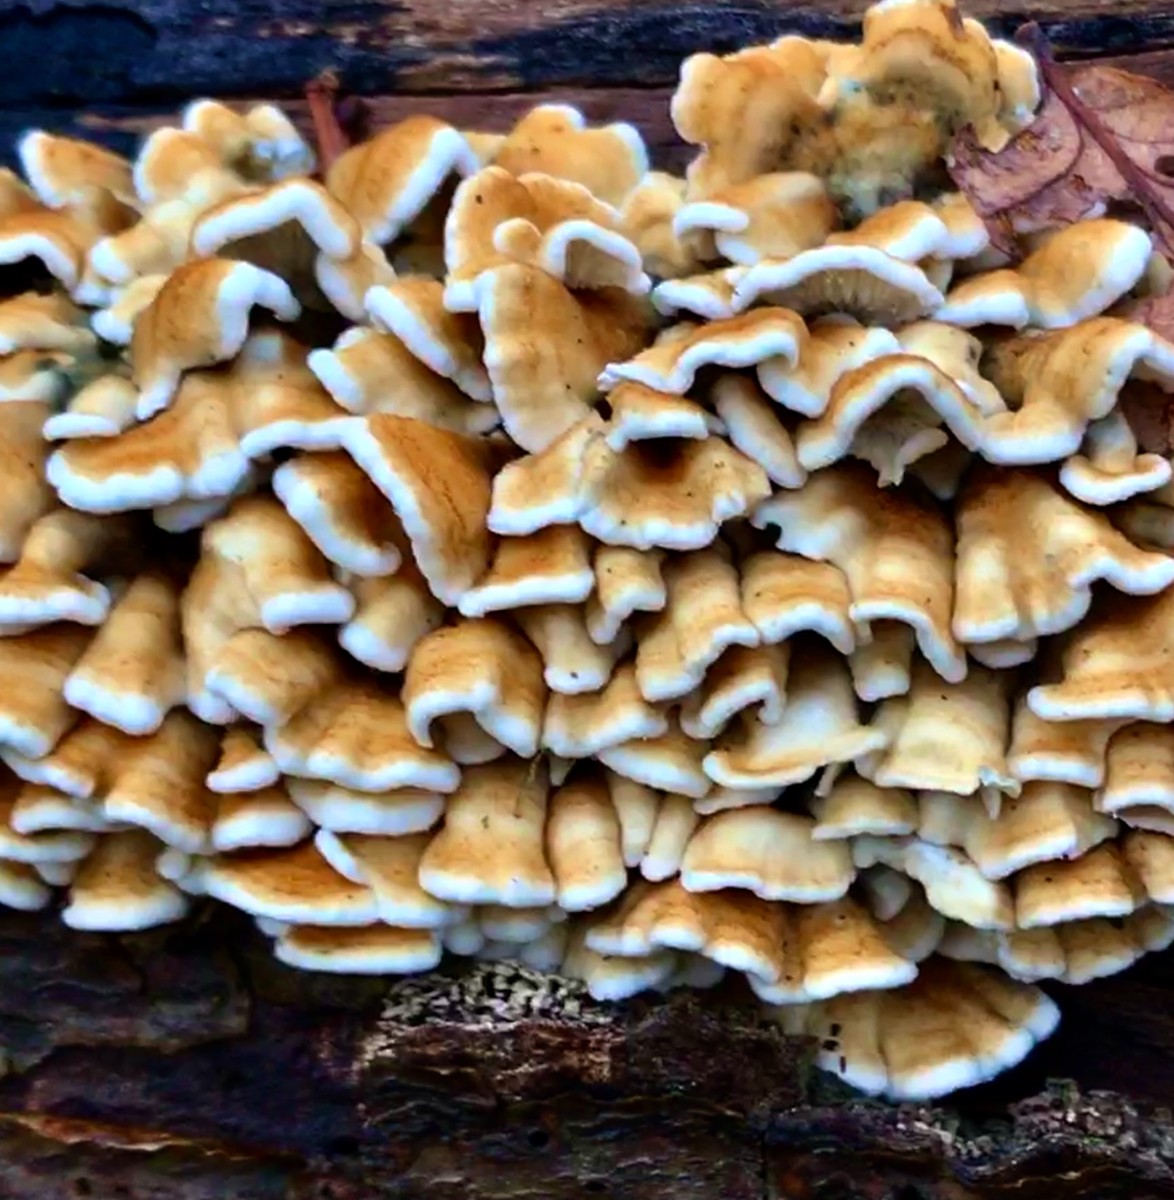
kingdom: Fungi
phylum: Basidiomycota
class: Agaricomycetes
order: Amylocorticiales
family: Amylocorticiaceae
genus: Plicaturopsis
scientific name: Plicaturopsis crispa
